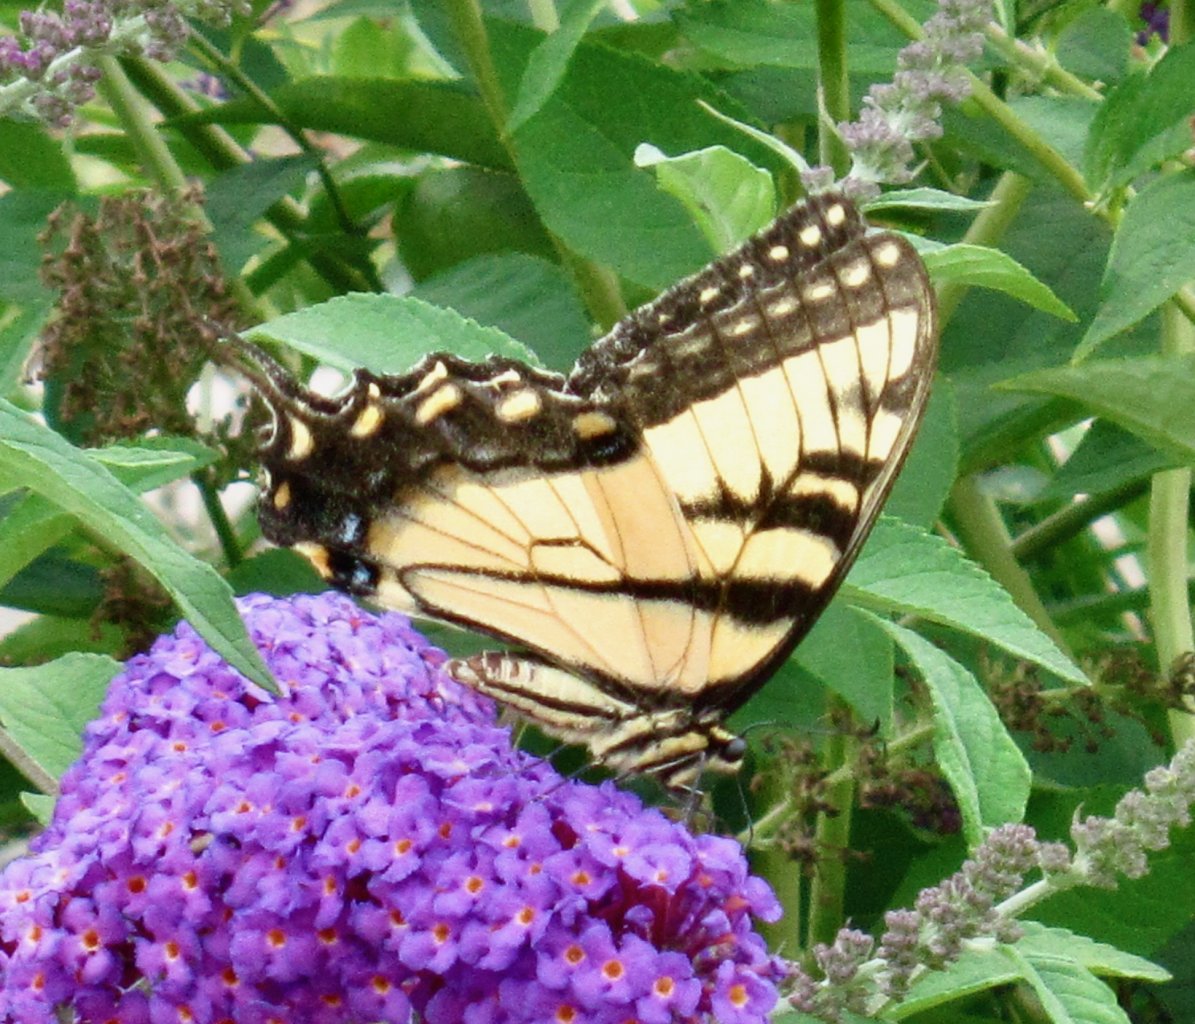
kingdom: Animalia
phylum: Arthropoda
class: Insecta
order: Lepidoptera
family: Papilionidae
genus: Pterourus
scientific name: Pterourus glaucus
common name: Eastern Tiger Swallowtail
